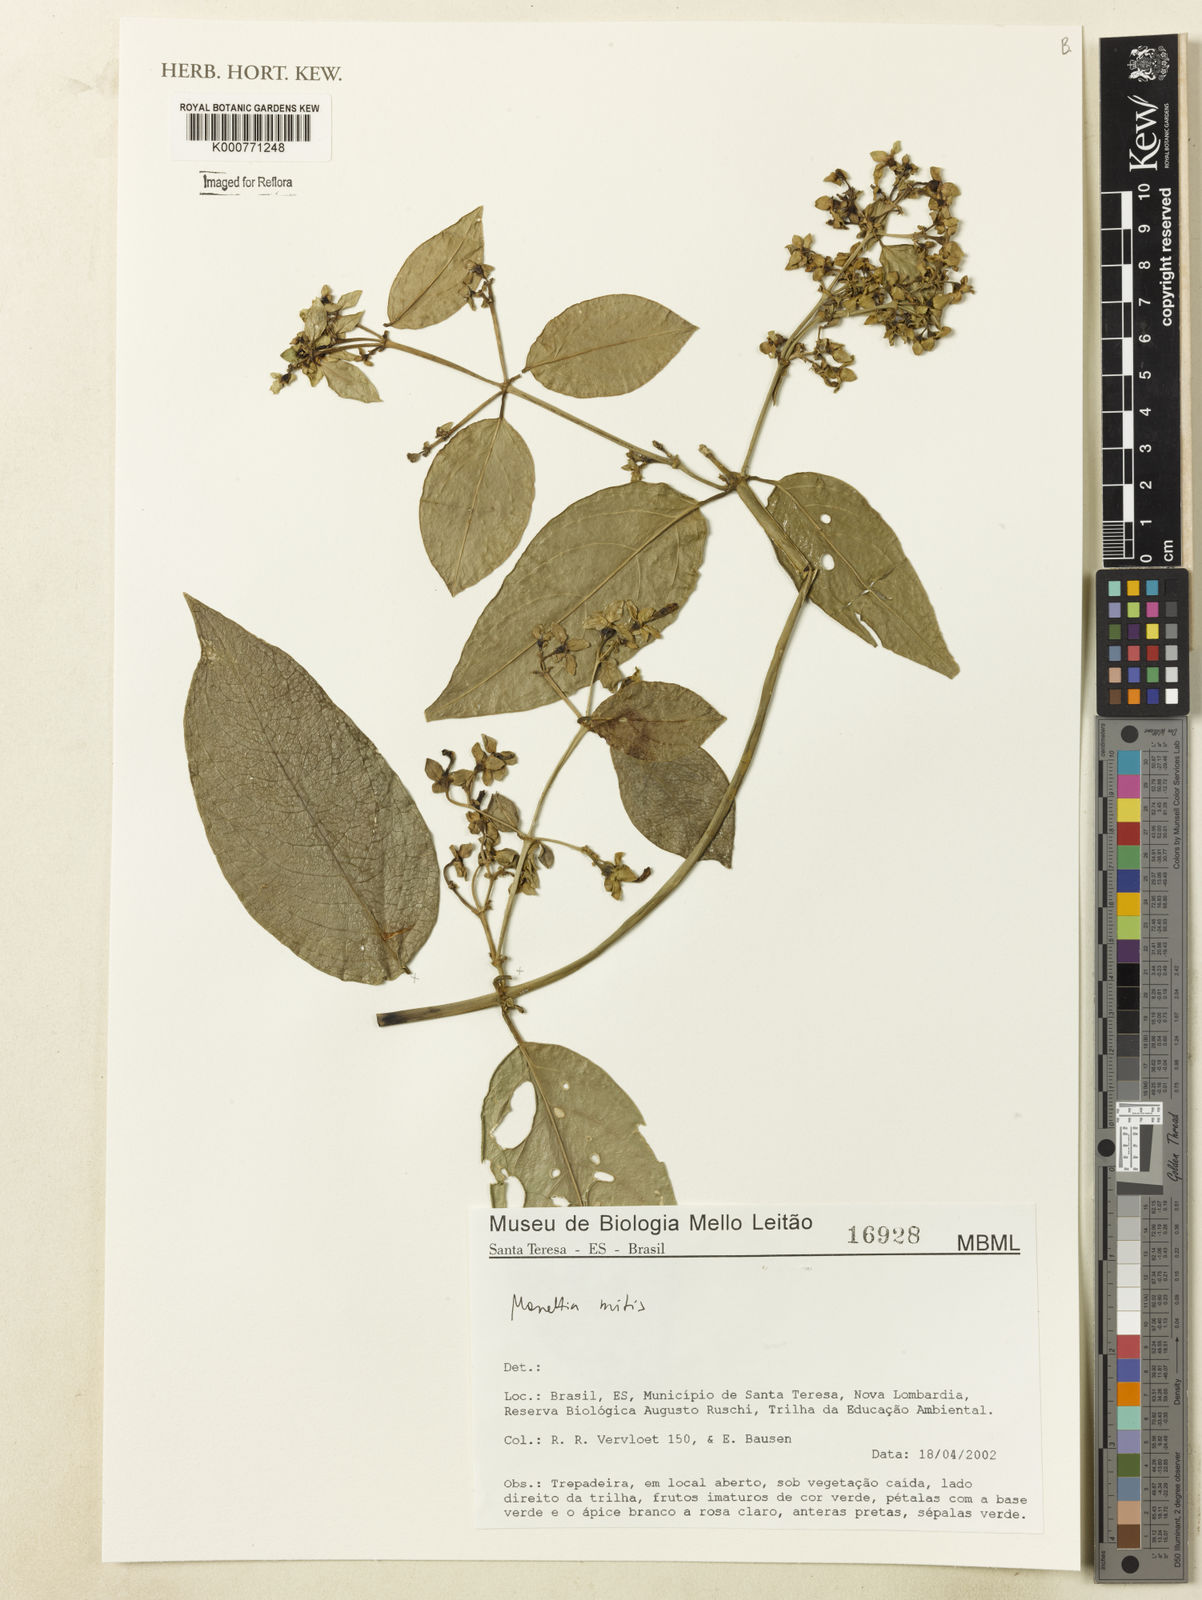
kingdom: Plantae
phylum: Tracheophyta
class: Magnoliopsida
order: Gentianales
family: Rubiaceae
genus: Manettia
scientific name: Manettia mitis
